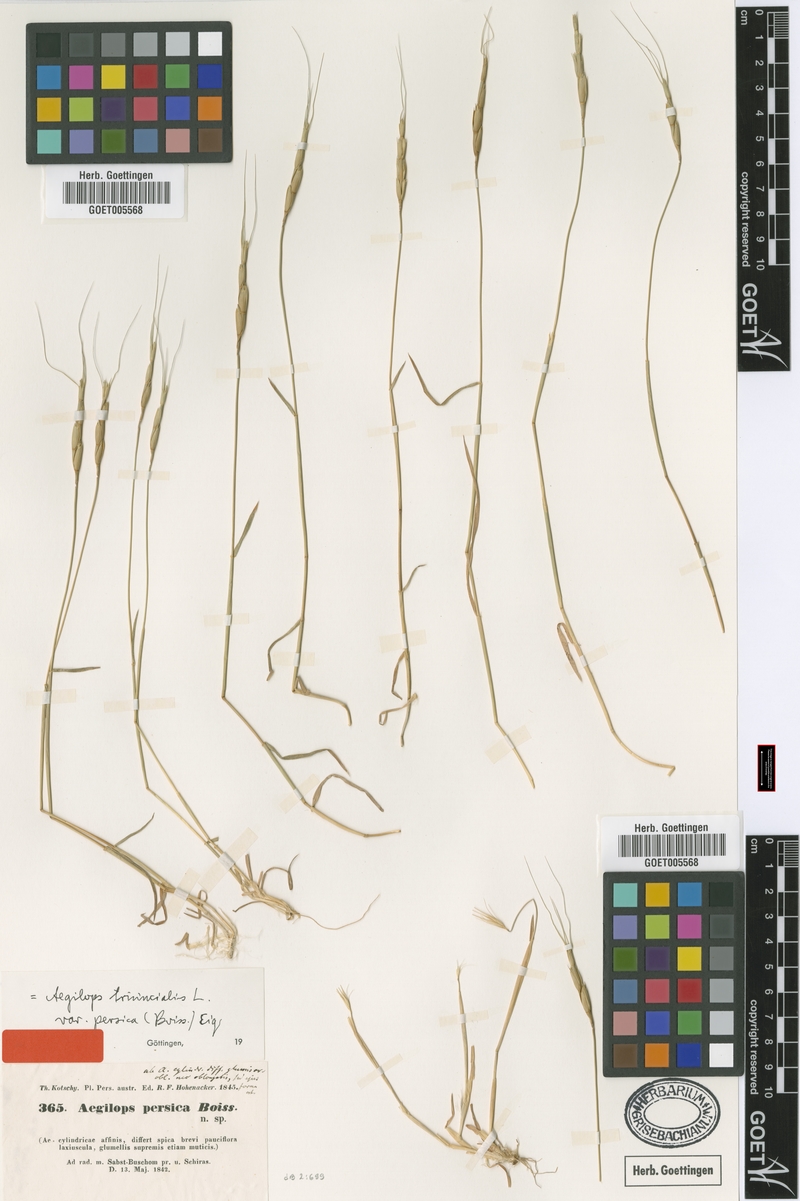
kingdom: Plantae
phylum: Tracheophyta
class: Liliopsida
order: Poales
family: Poaceae
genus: Aegilops
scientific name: Aegilops triuncialis
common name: Barb goat grass
